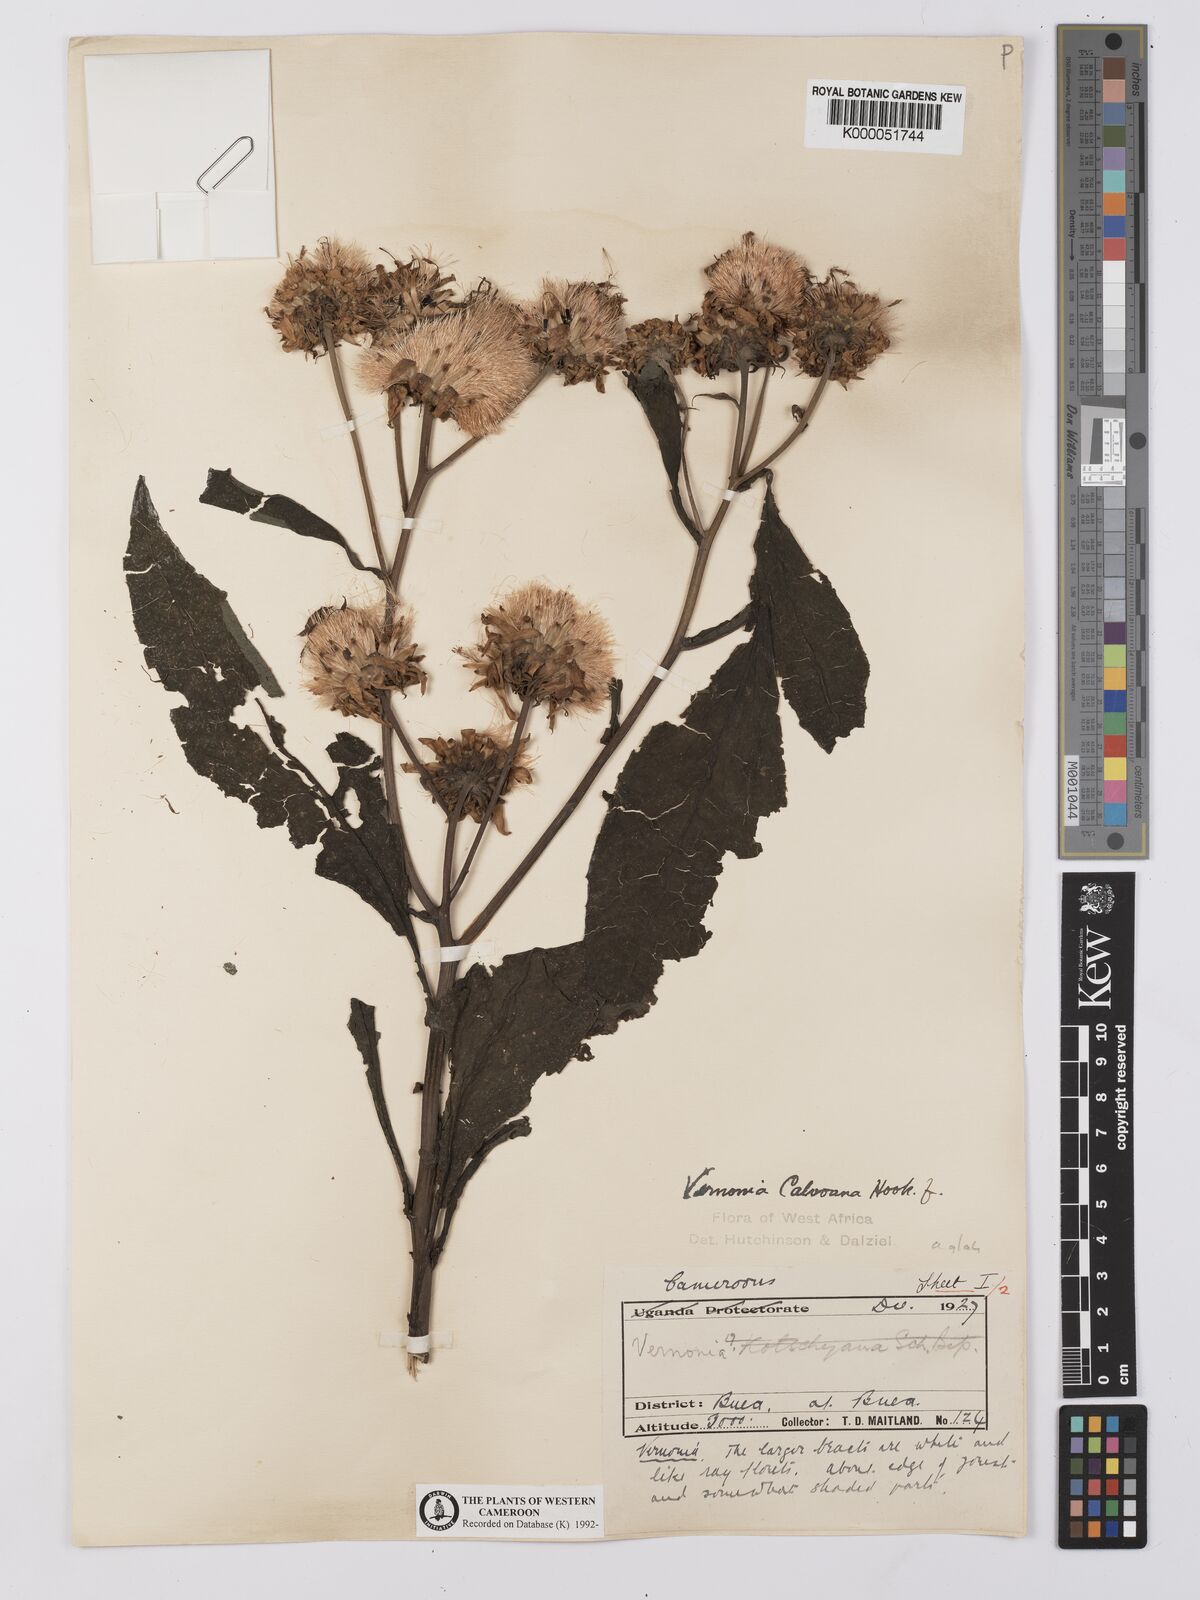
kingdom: Plantae
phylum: Tracheophyta
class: Magnoliopsida
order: Asterales
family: Asteraceae
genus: Baccharoides
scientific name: Baccharoides hymenolepis
